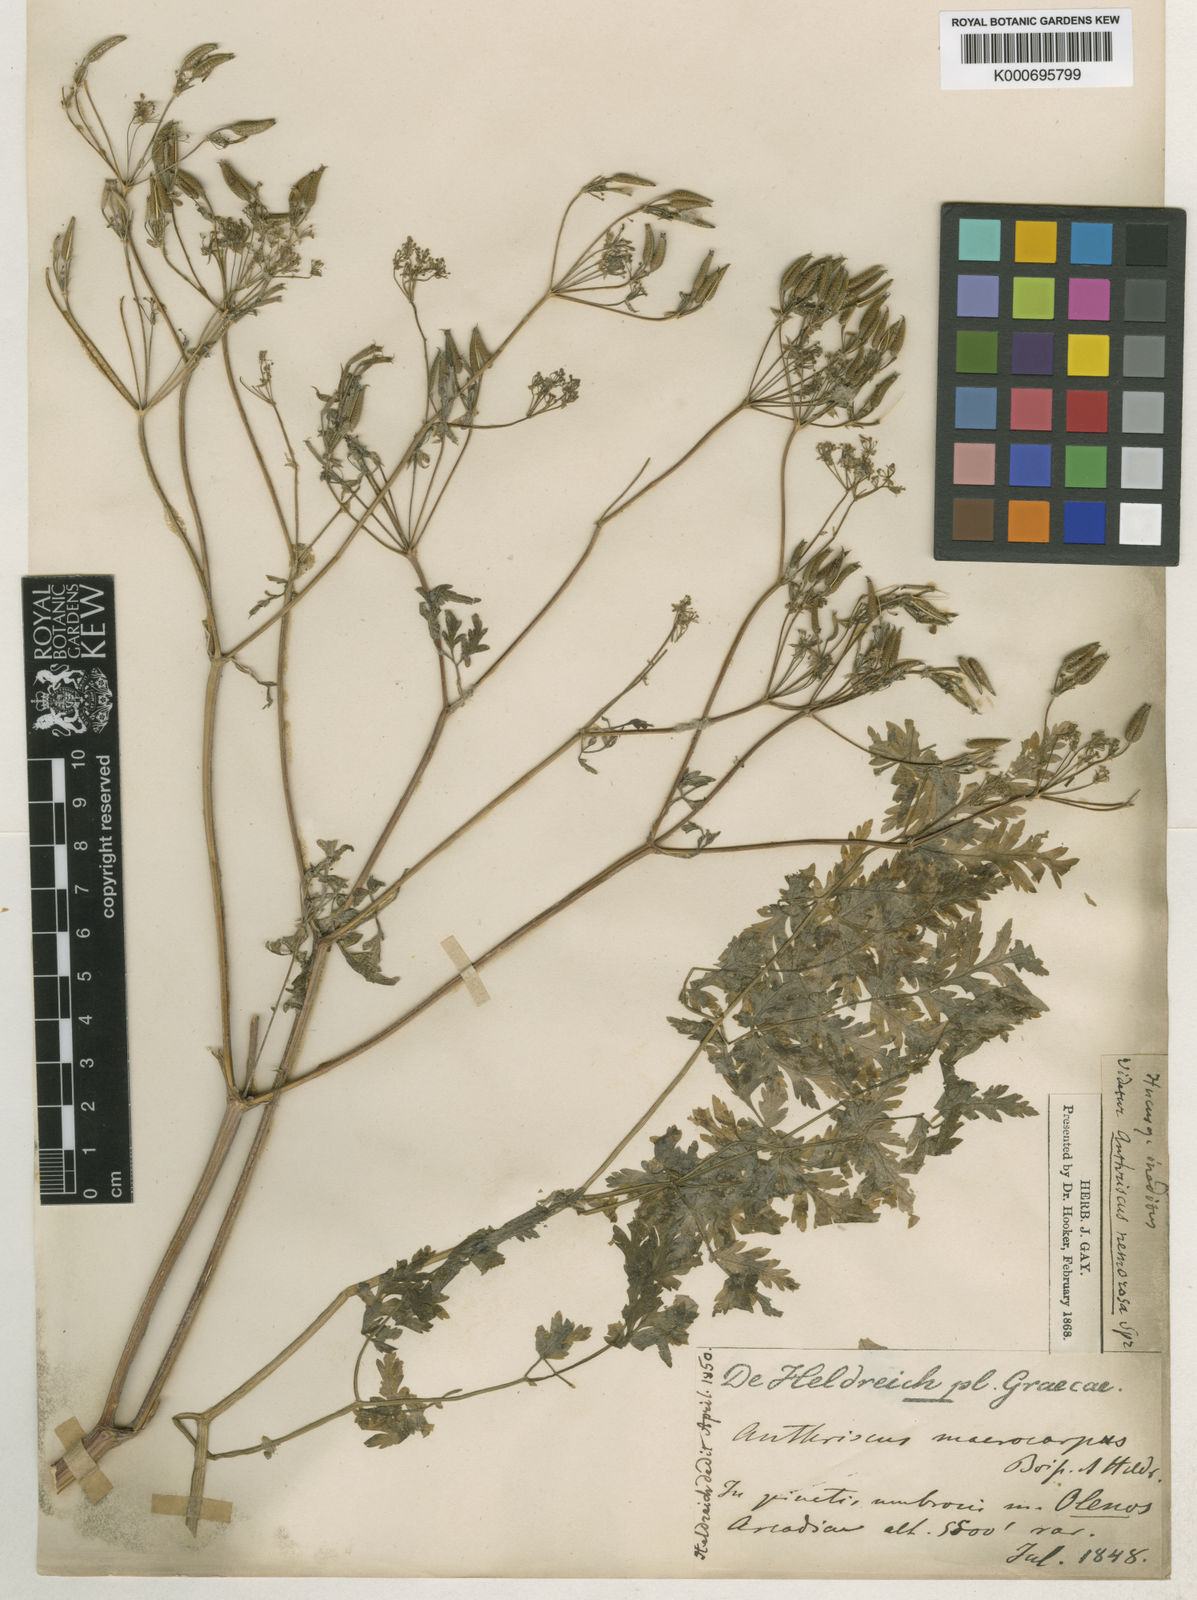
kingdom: Plantae
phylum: Tracheophyta
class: Magnoliopsida
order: Apiales
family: Apiaceae
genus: Anthriscus
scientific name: Anthriscus sylvestris
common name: Cow parsley
